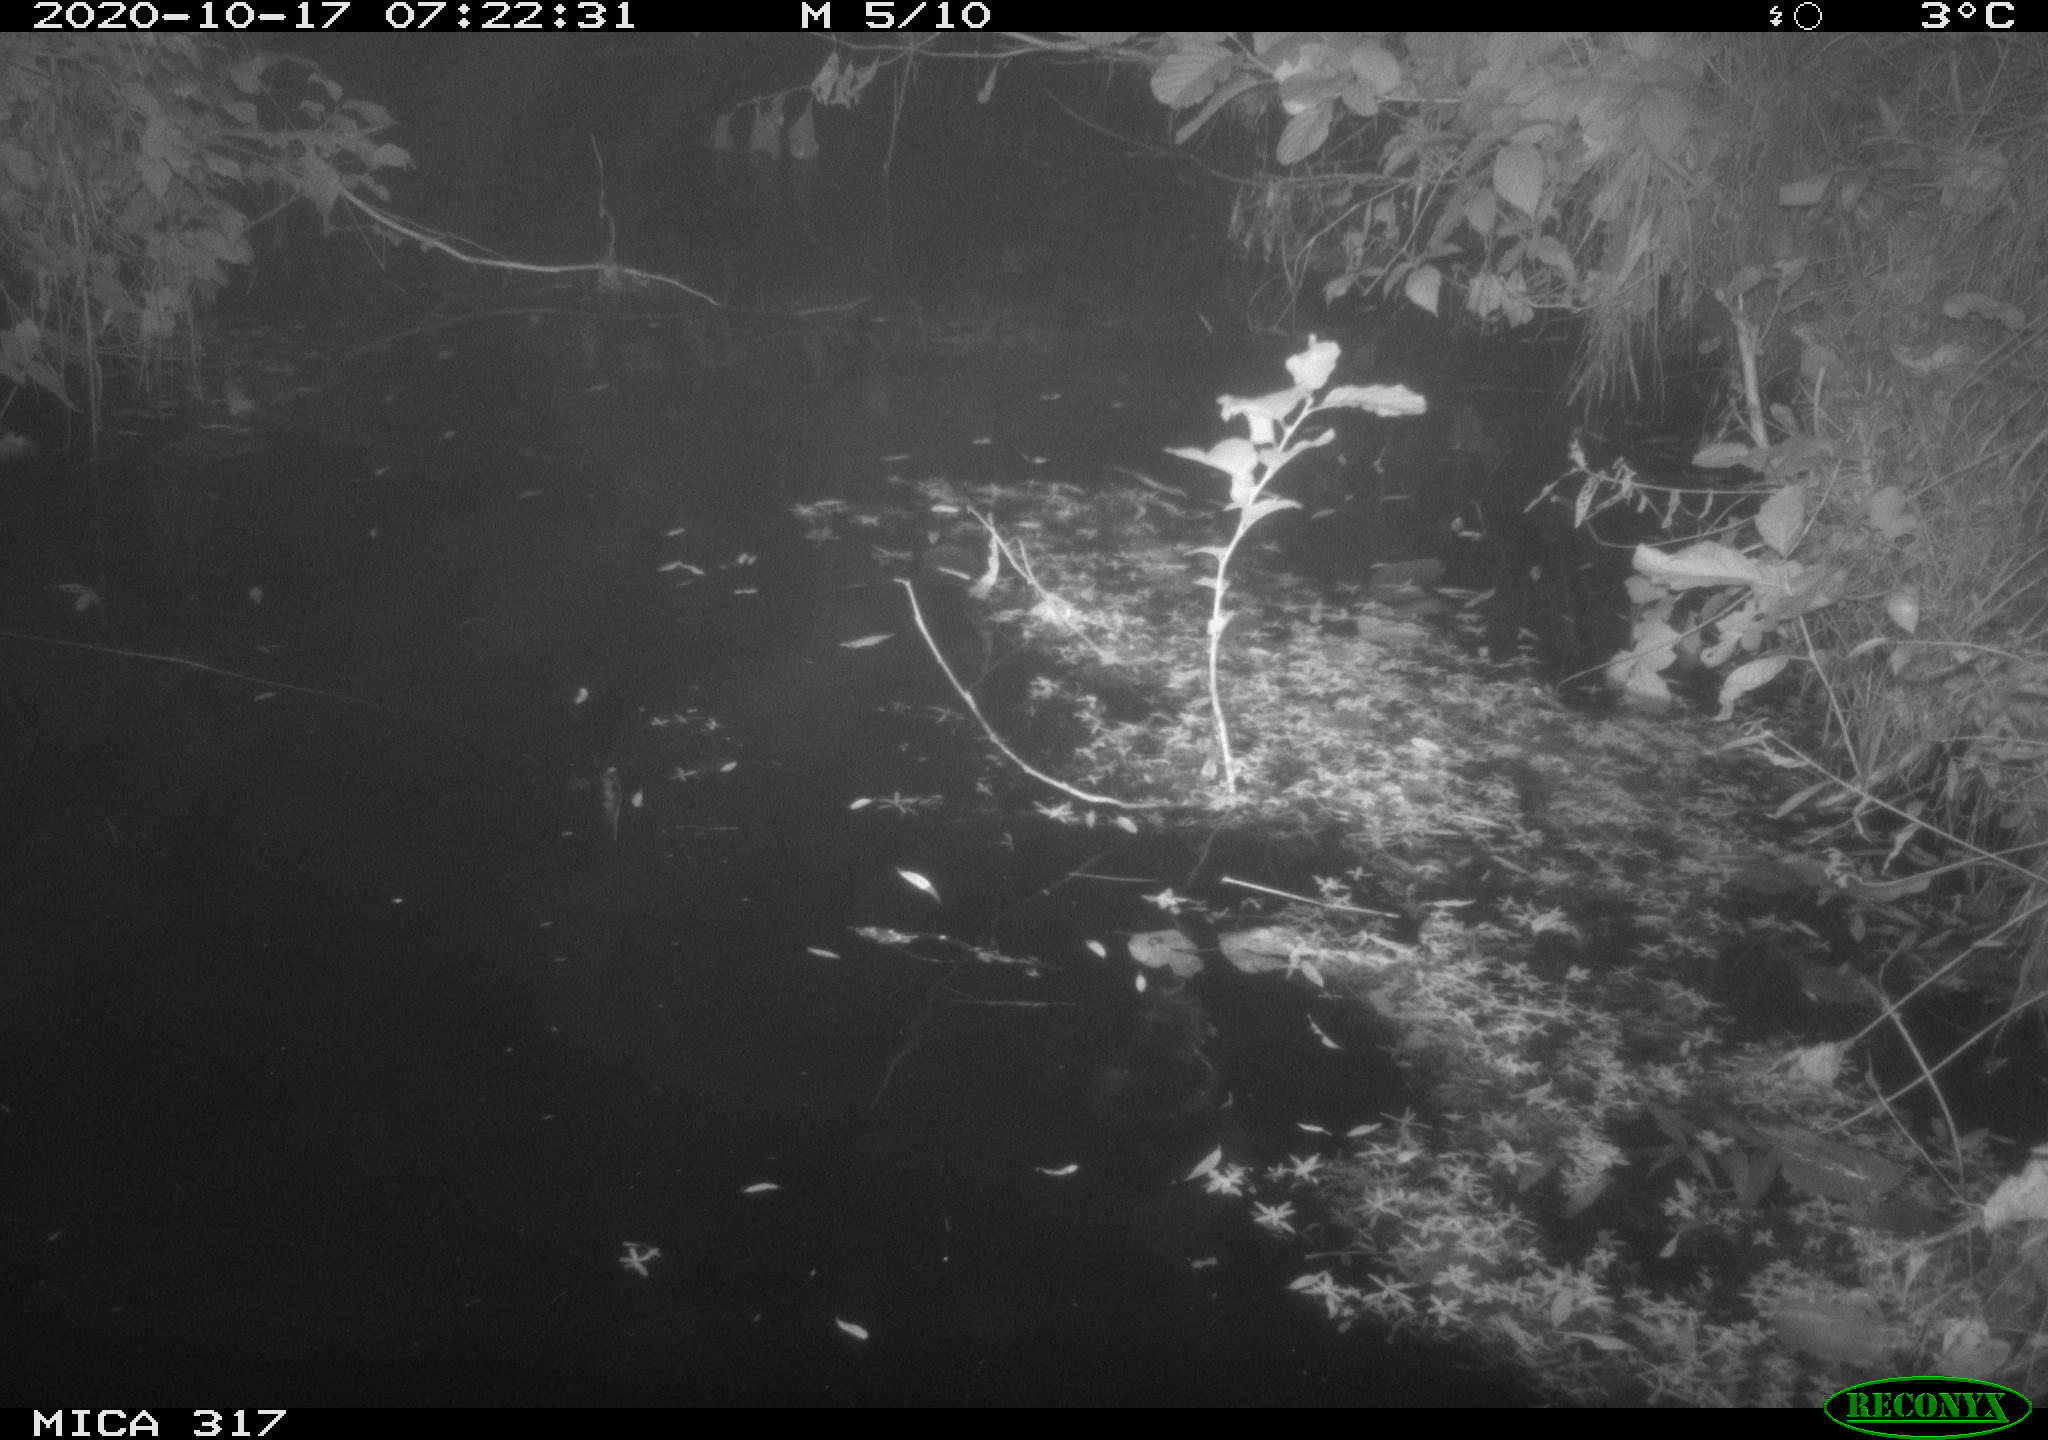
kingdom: Animalia
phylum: Chordata
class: Aves
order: Anseriformes
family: Anatidae
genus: Anas
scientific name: Anas platyrhynchos
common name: Mallard
